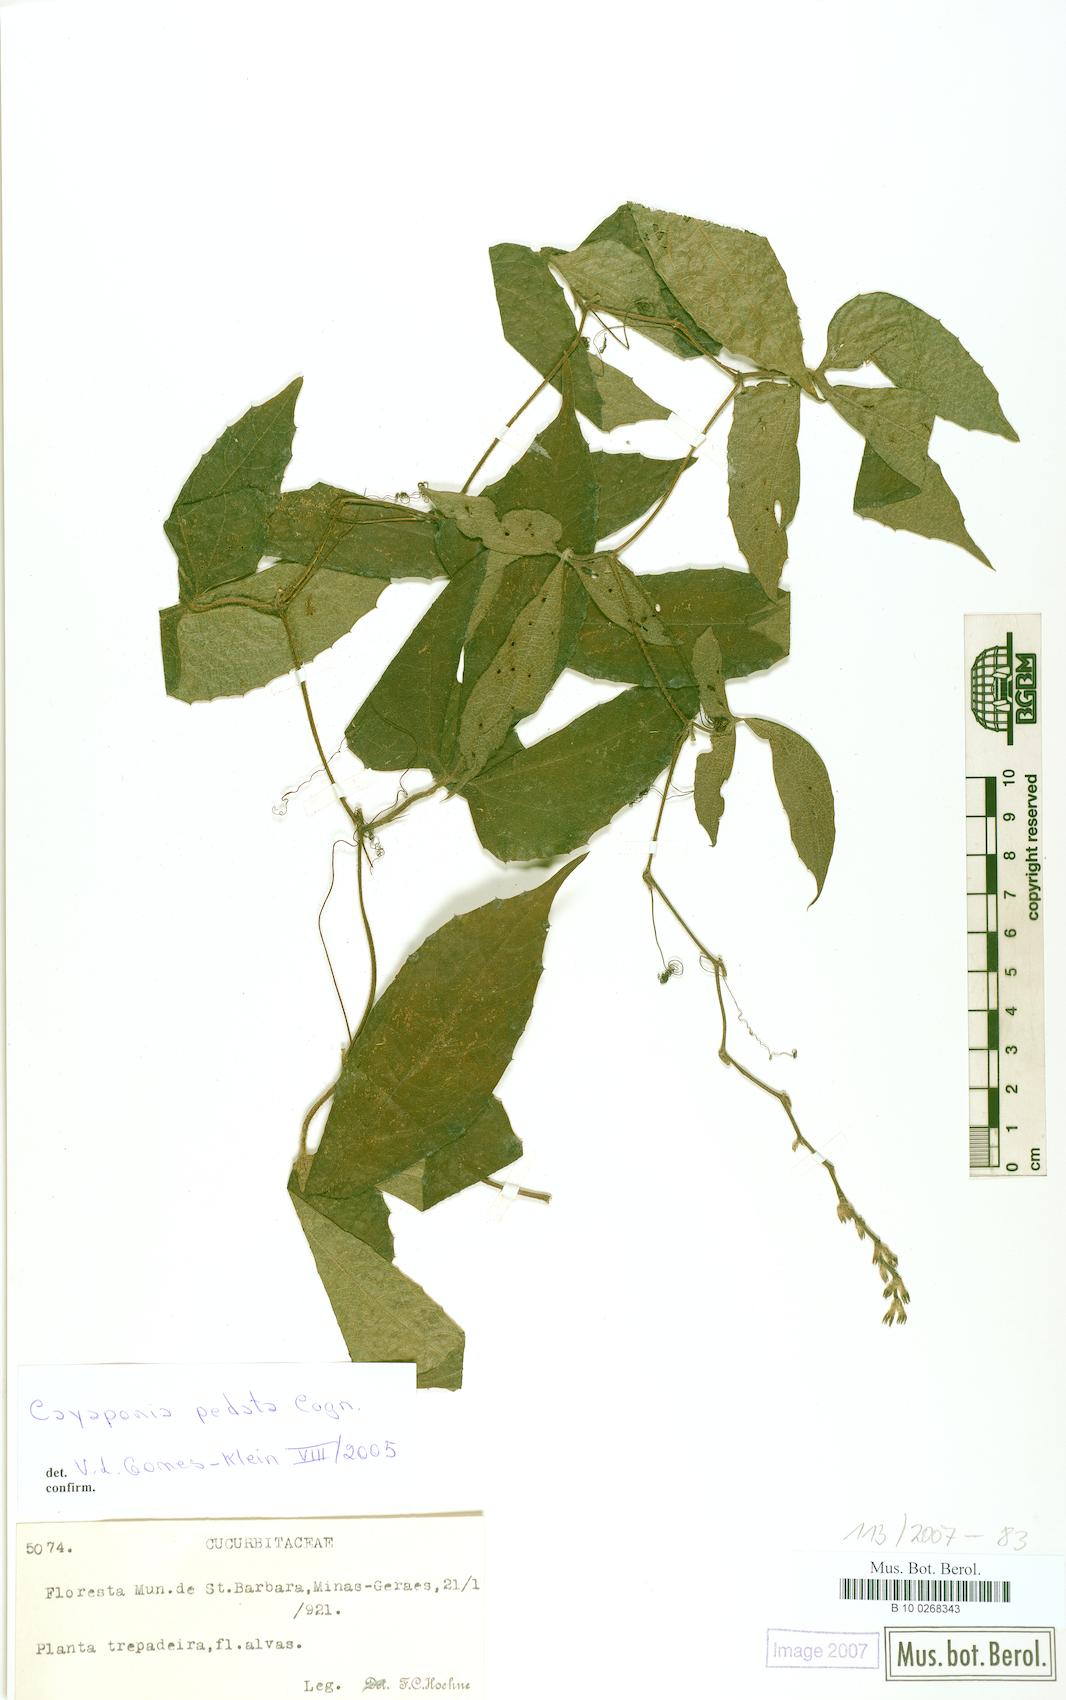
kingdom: Plantae
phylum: Tracheophyta
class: Magnoliopsida
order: Cucurbitales
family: Cucurbitaceae
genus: Cayaponia
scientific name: Cayaponia pedata
